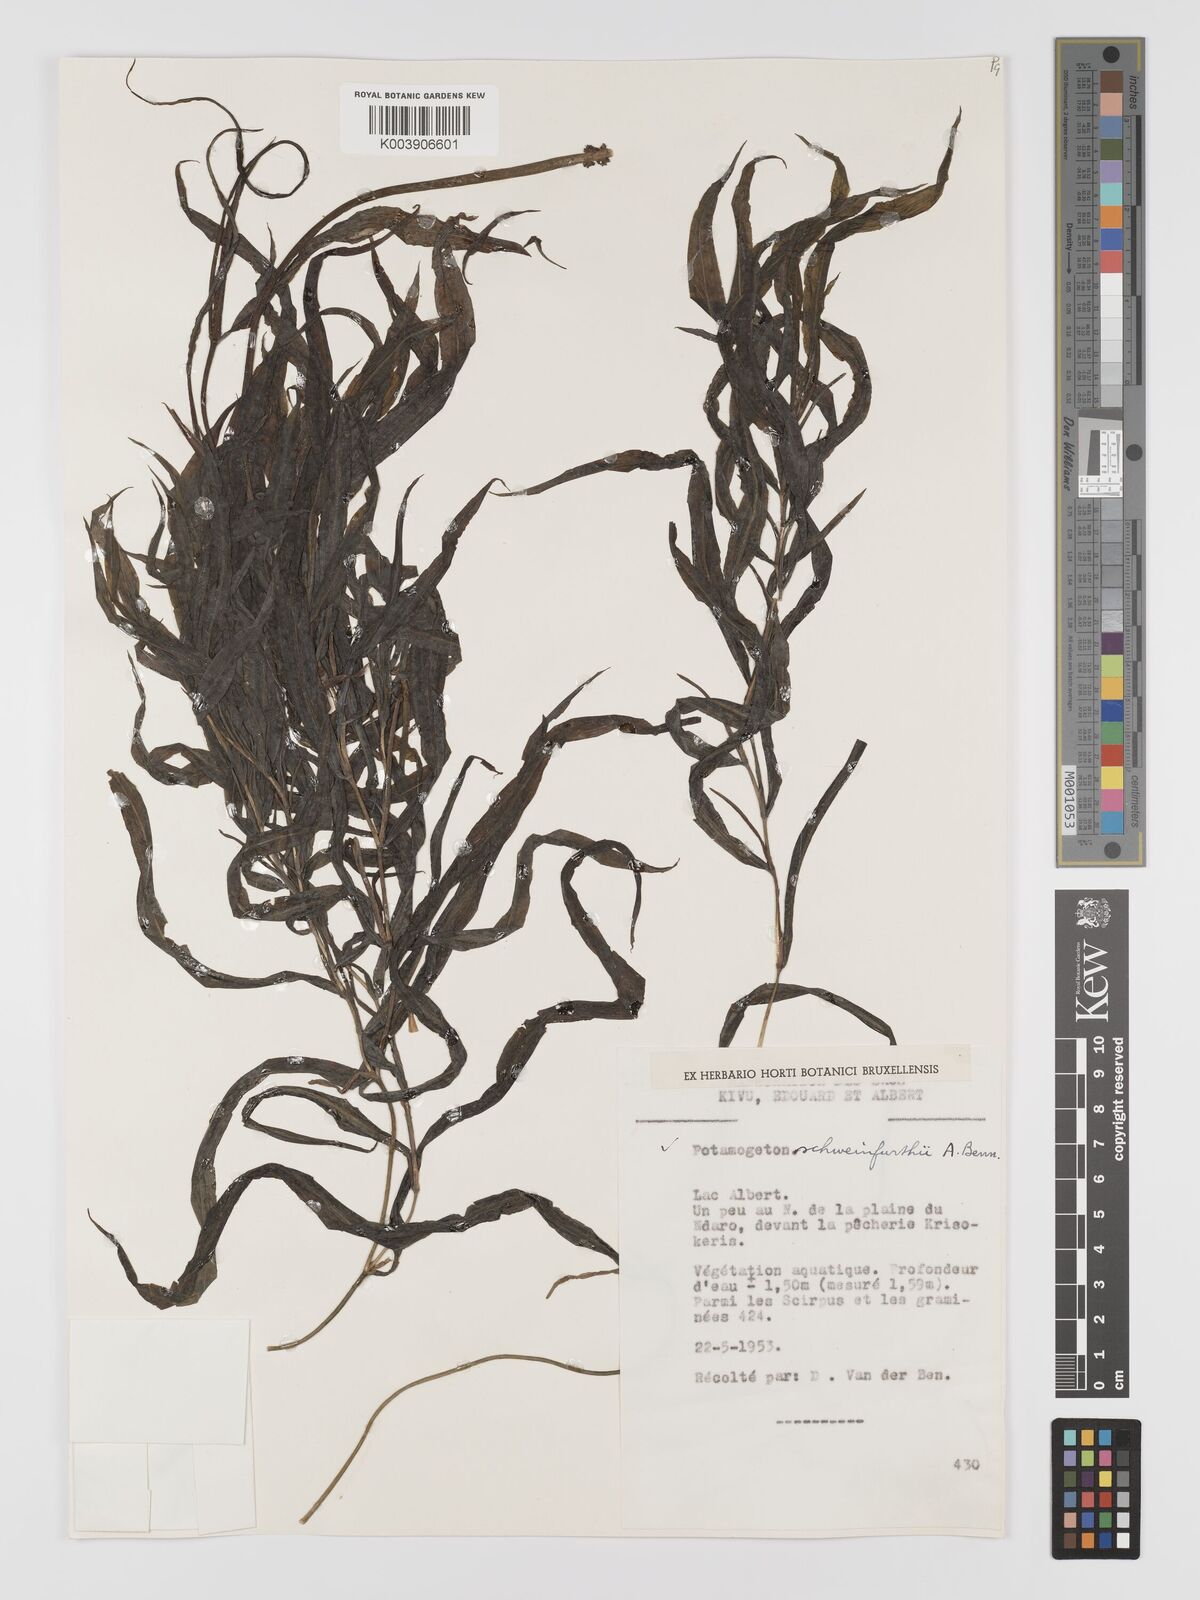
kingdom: Plantae
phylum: Tracheophyta
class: Liliopsida
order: Alismatales
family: Potamogetonaceae
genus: Potamogeton
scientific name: Potamogeton schweinfurthii
